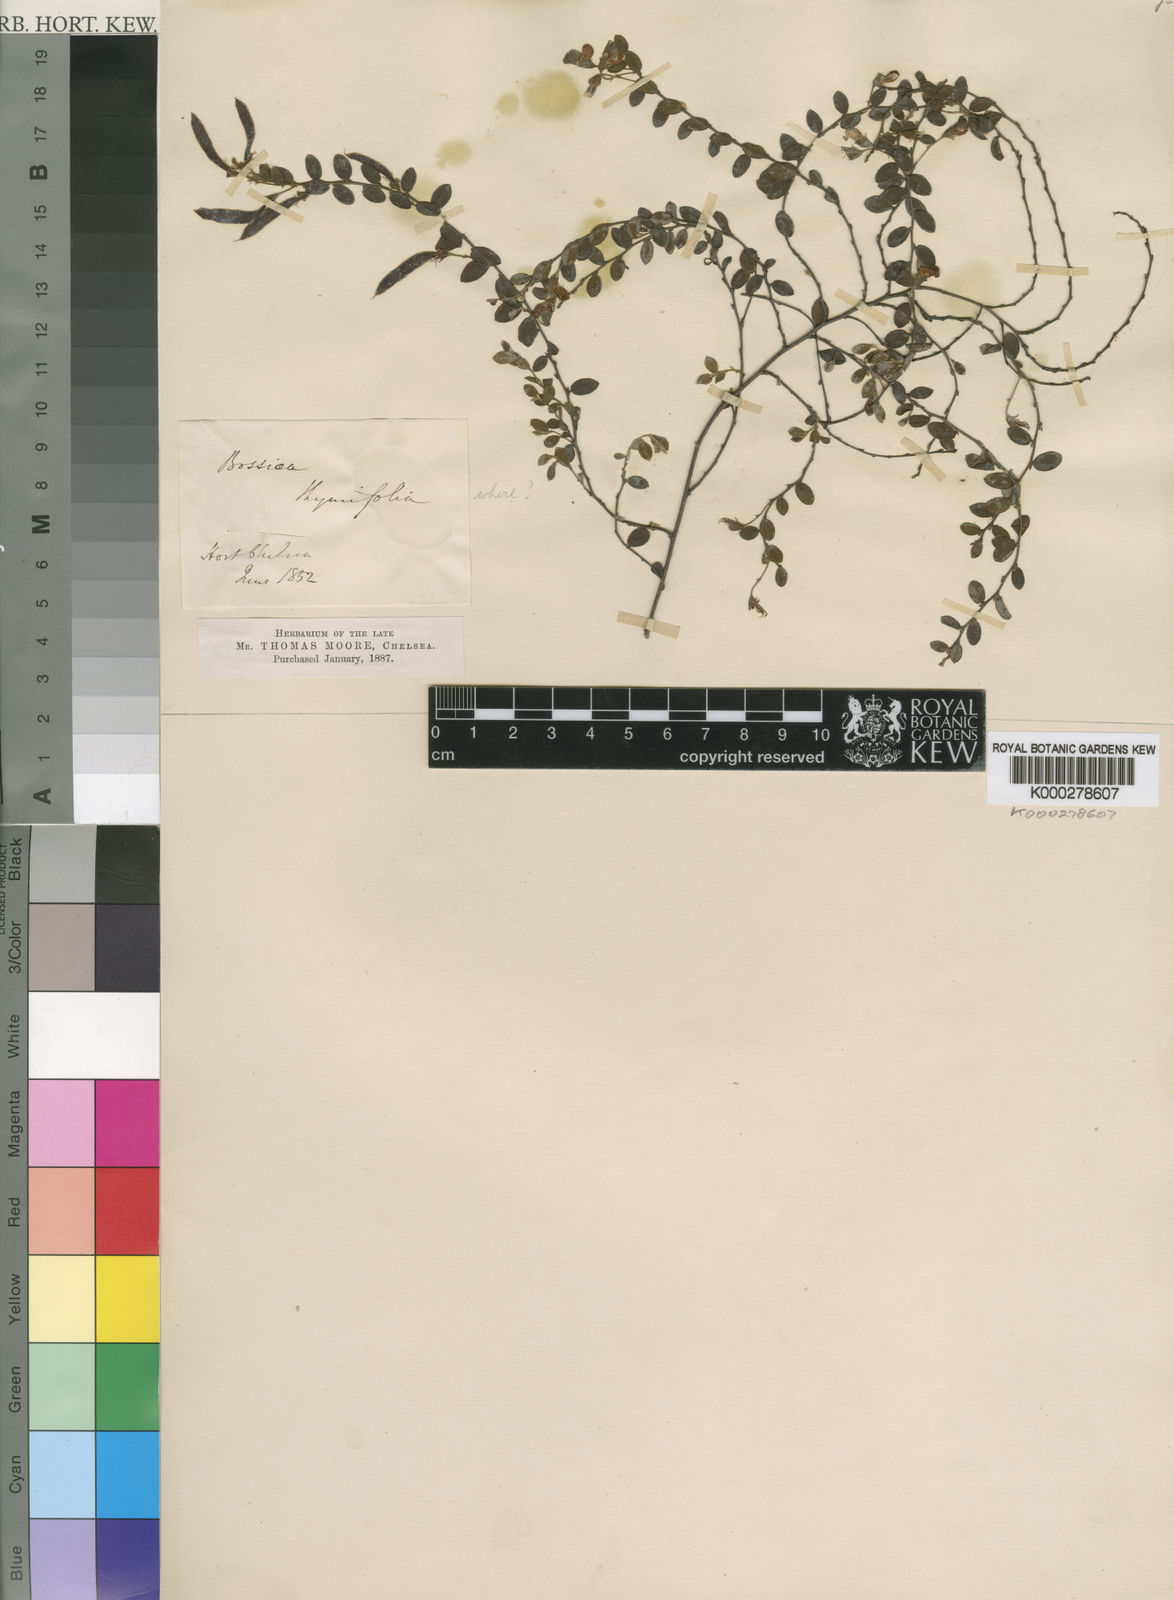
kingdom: Plantae
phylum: Tracheophyta
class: Magnoliopsida
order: Fabales
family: Fabaceae
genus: Bossiaea
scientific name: Bossiaea
